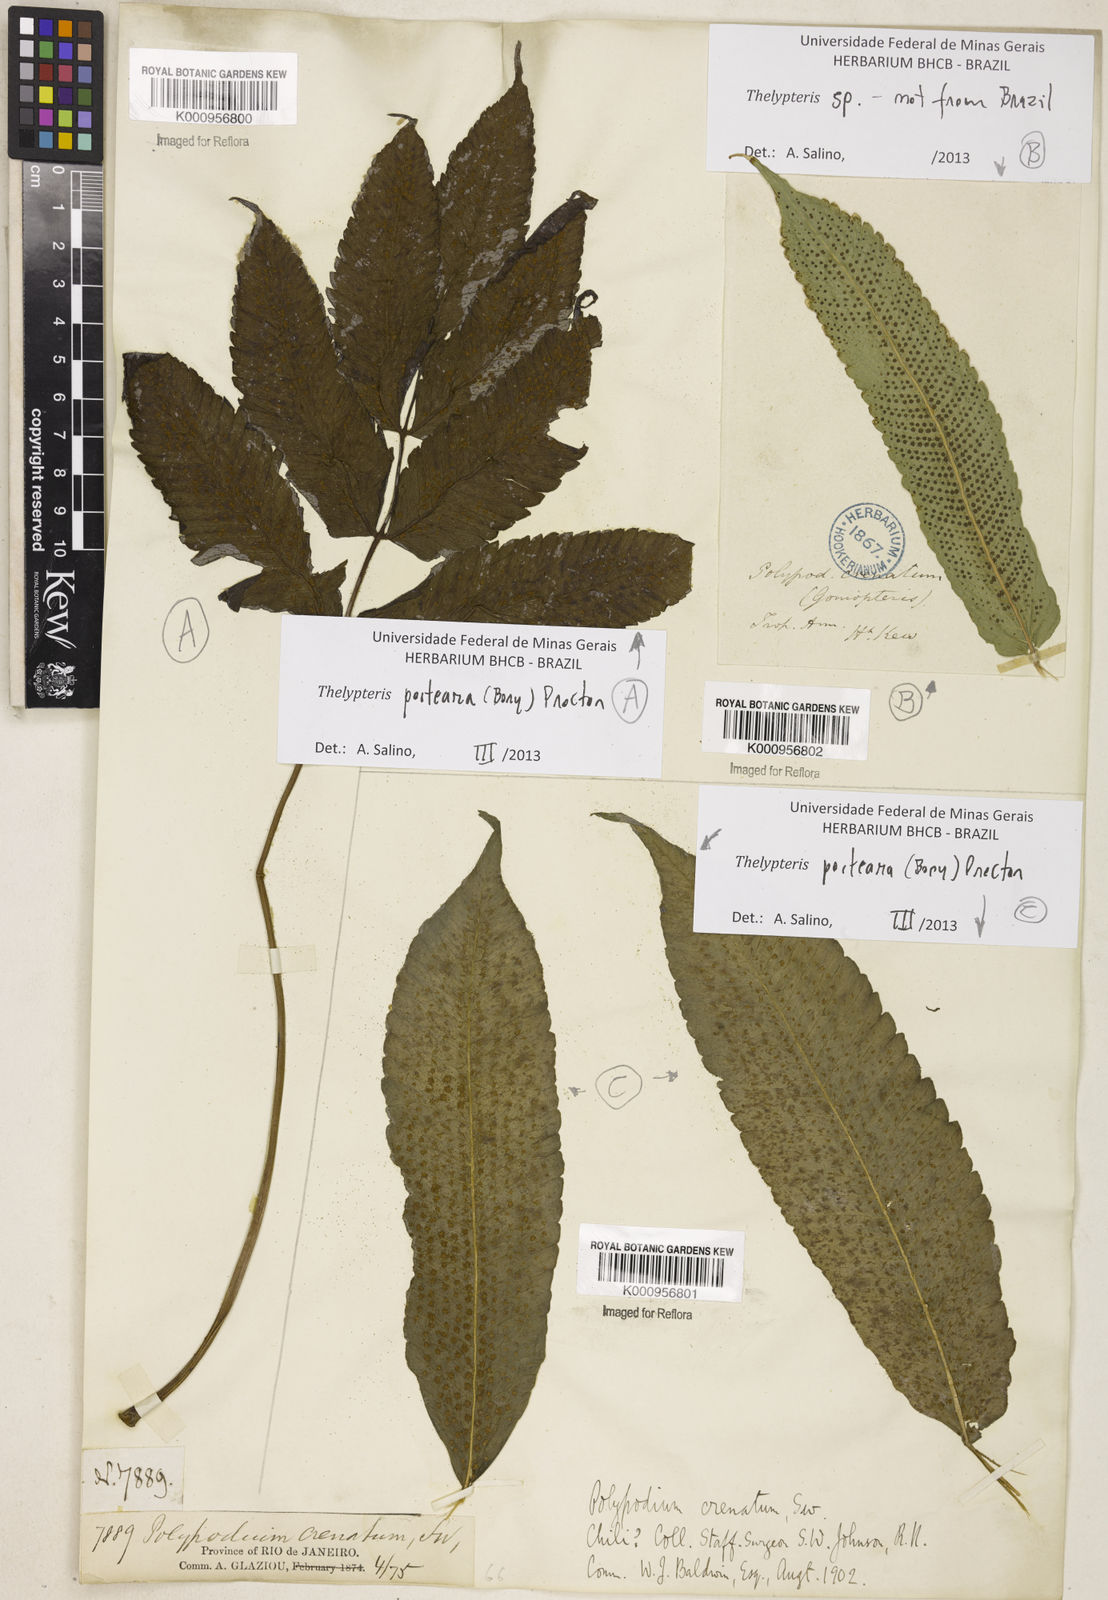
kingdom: Plantae
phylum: Tracheophyta
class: Polypodiopsida
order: Polypodiales
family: Thelypteridaceae
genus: Goniopteris
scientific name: Goniopteris poiteana
